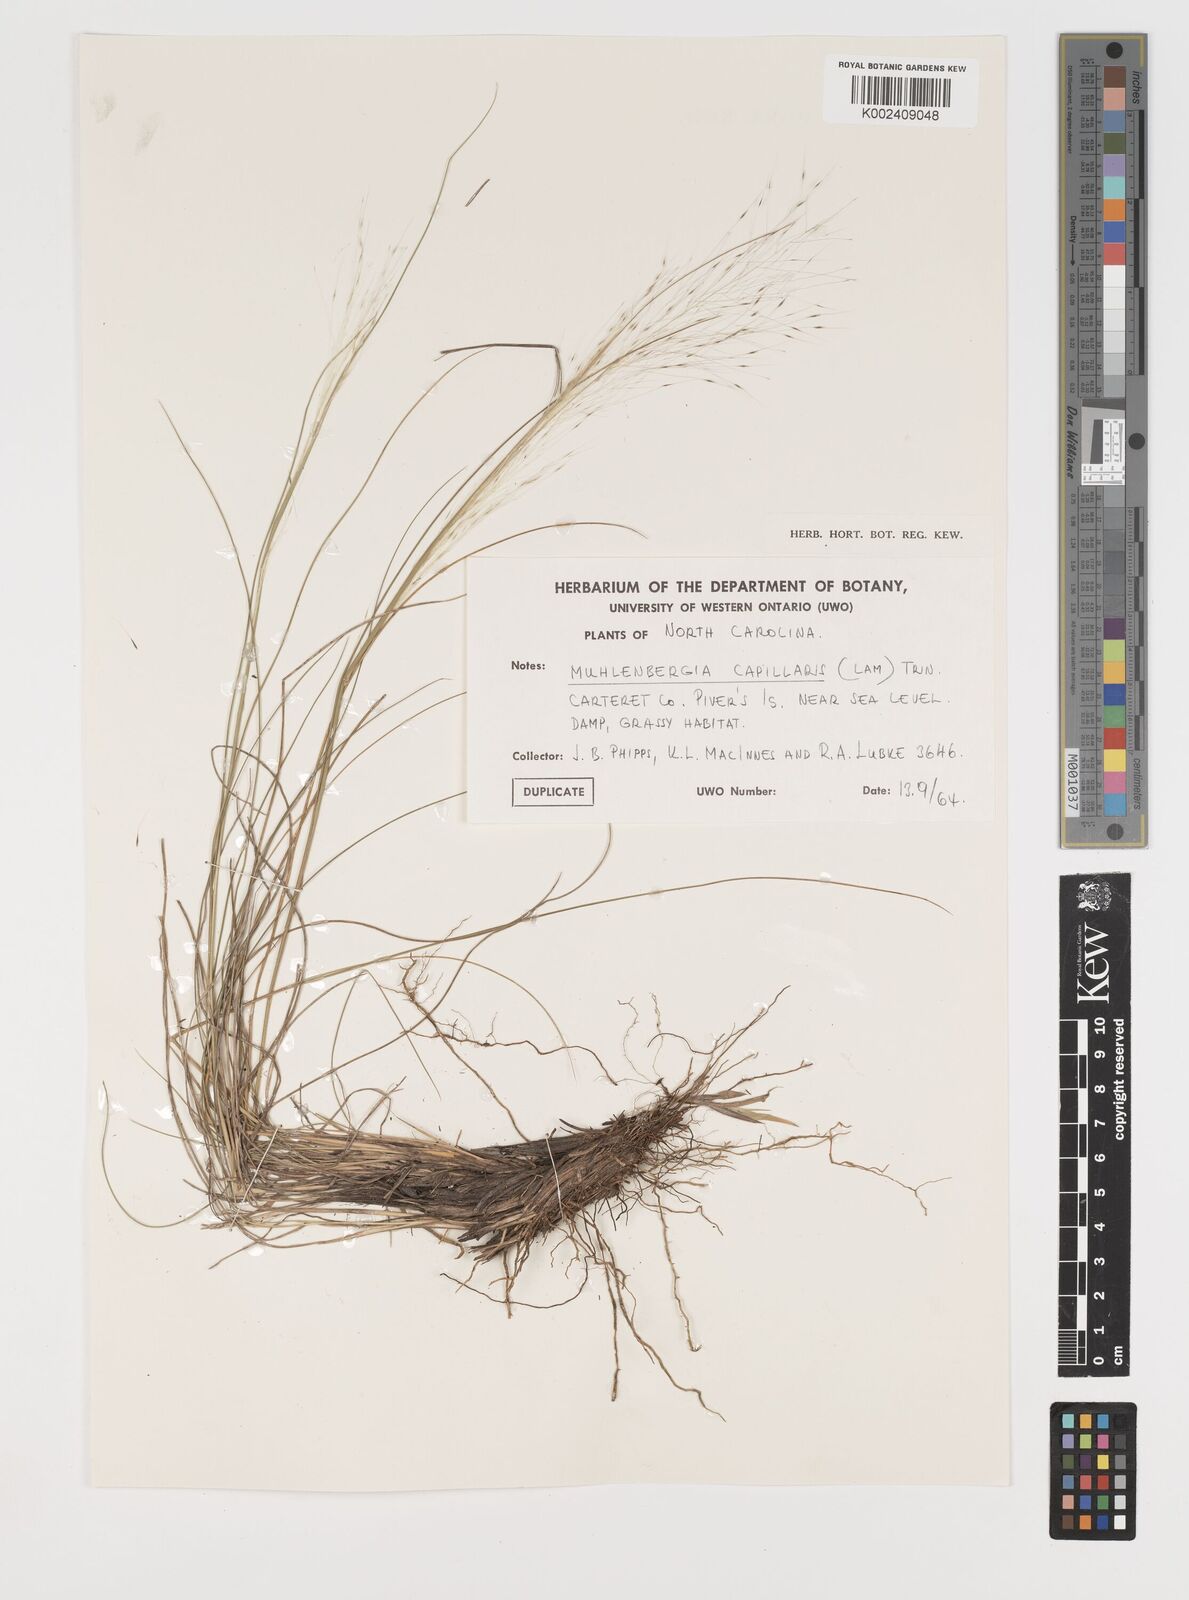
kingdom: Plantae
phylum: Tracheophyta
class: Liliopsida
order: Poales
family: Poaceae
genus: Muhlenbergia
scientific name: Muhlenbergia capillaris
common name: Purple grass
